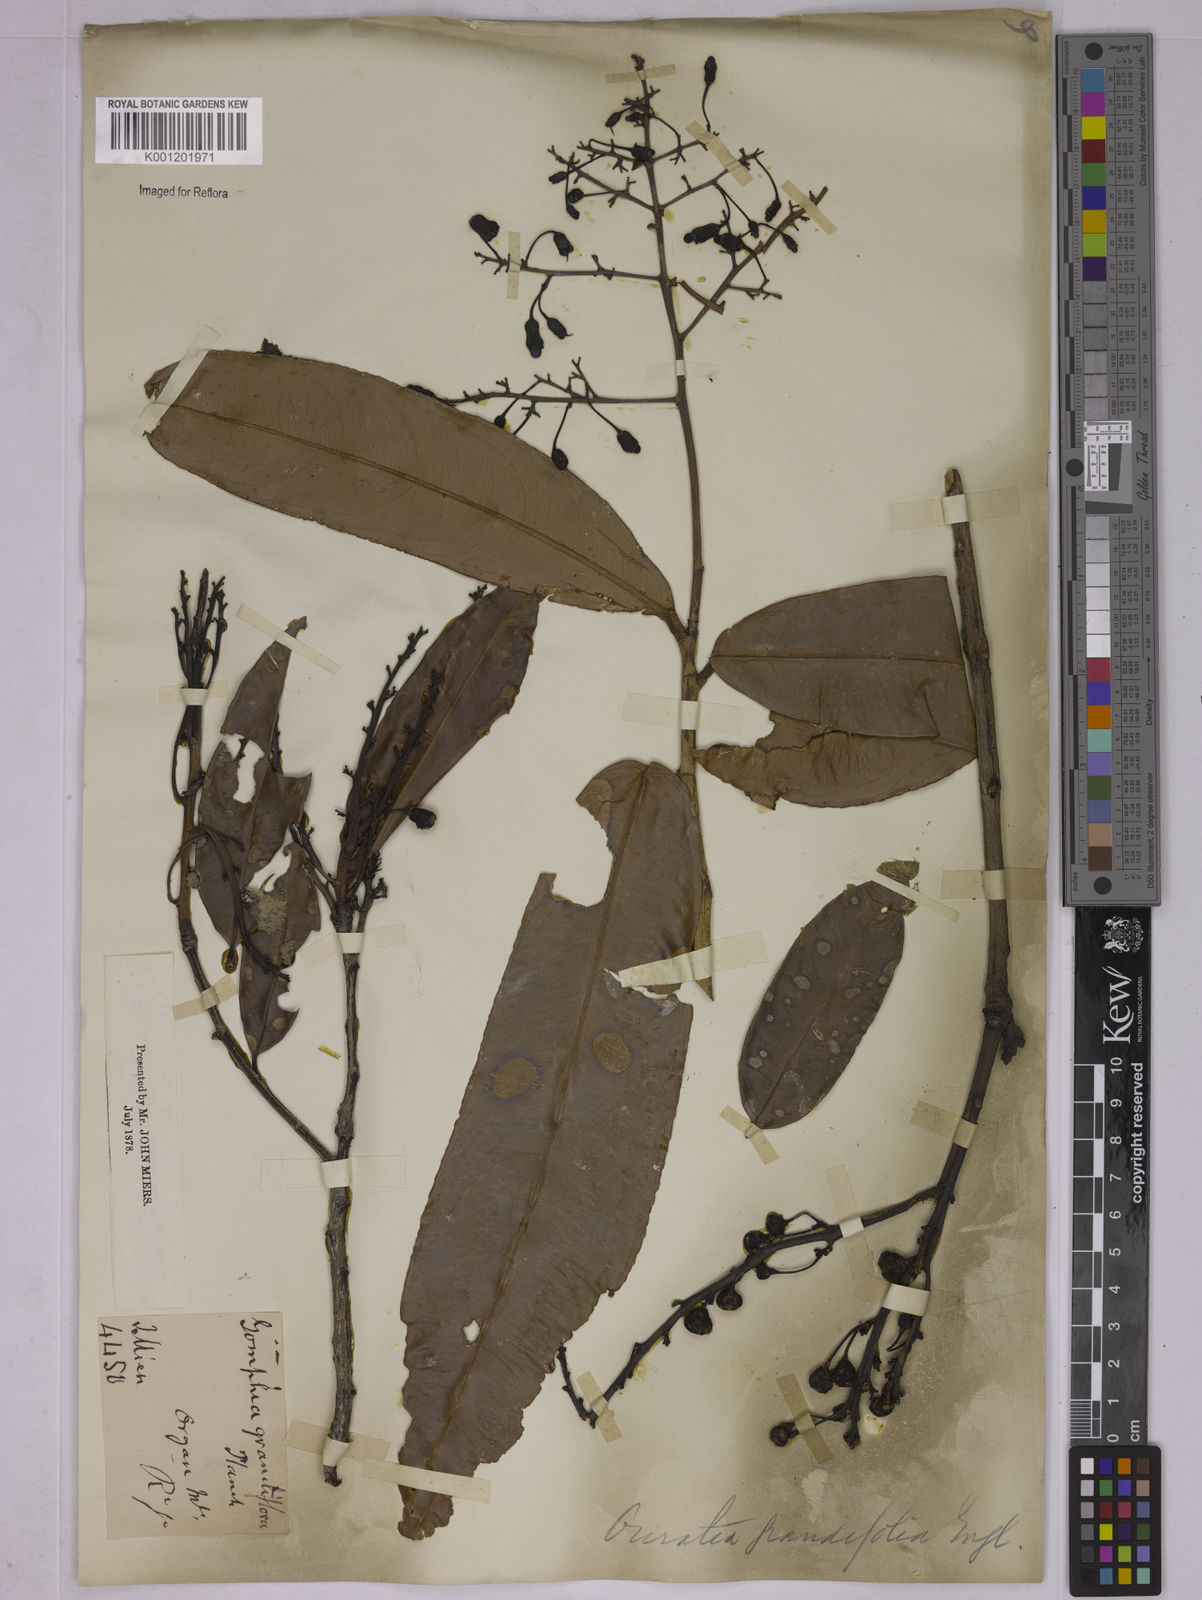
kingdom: Plantae
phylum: Tracheophyta
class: Magnoliopsida
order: Malpighiales
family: Ochnaceae
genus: Ouratea
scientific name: Ouratea grandiflora
